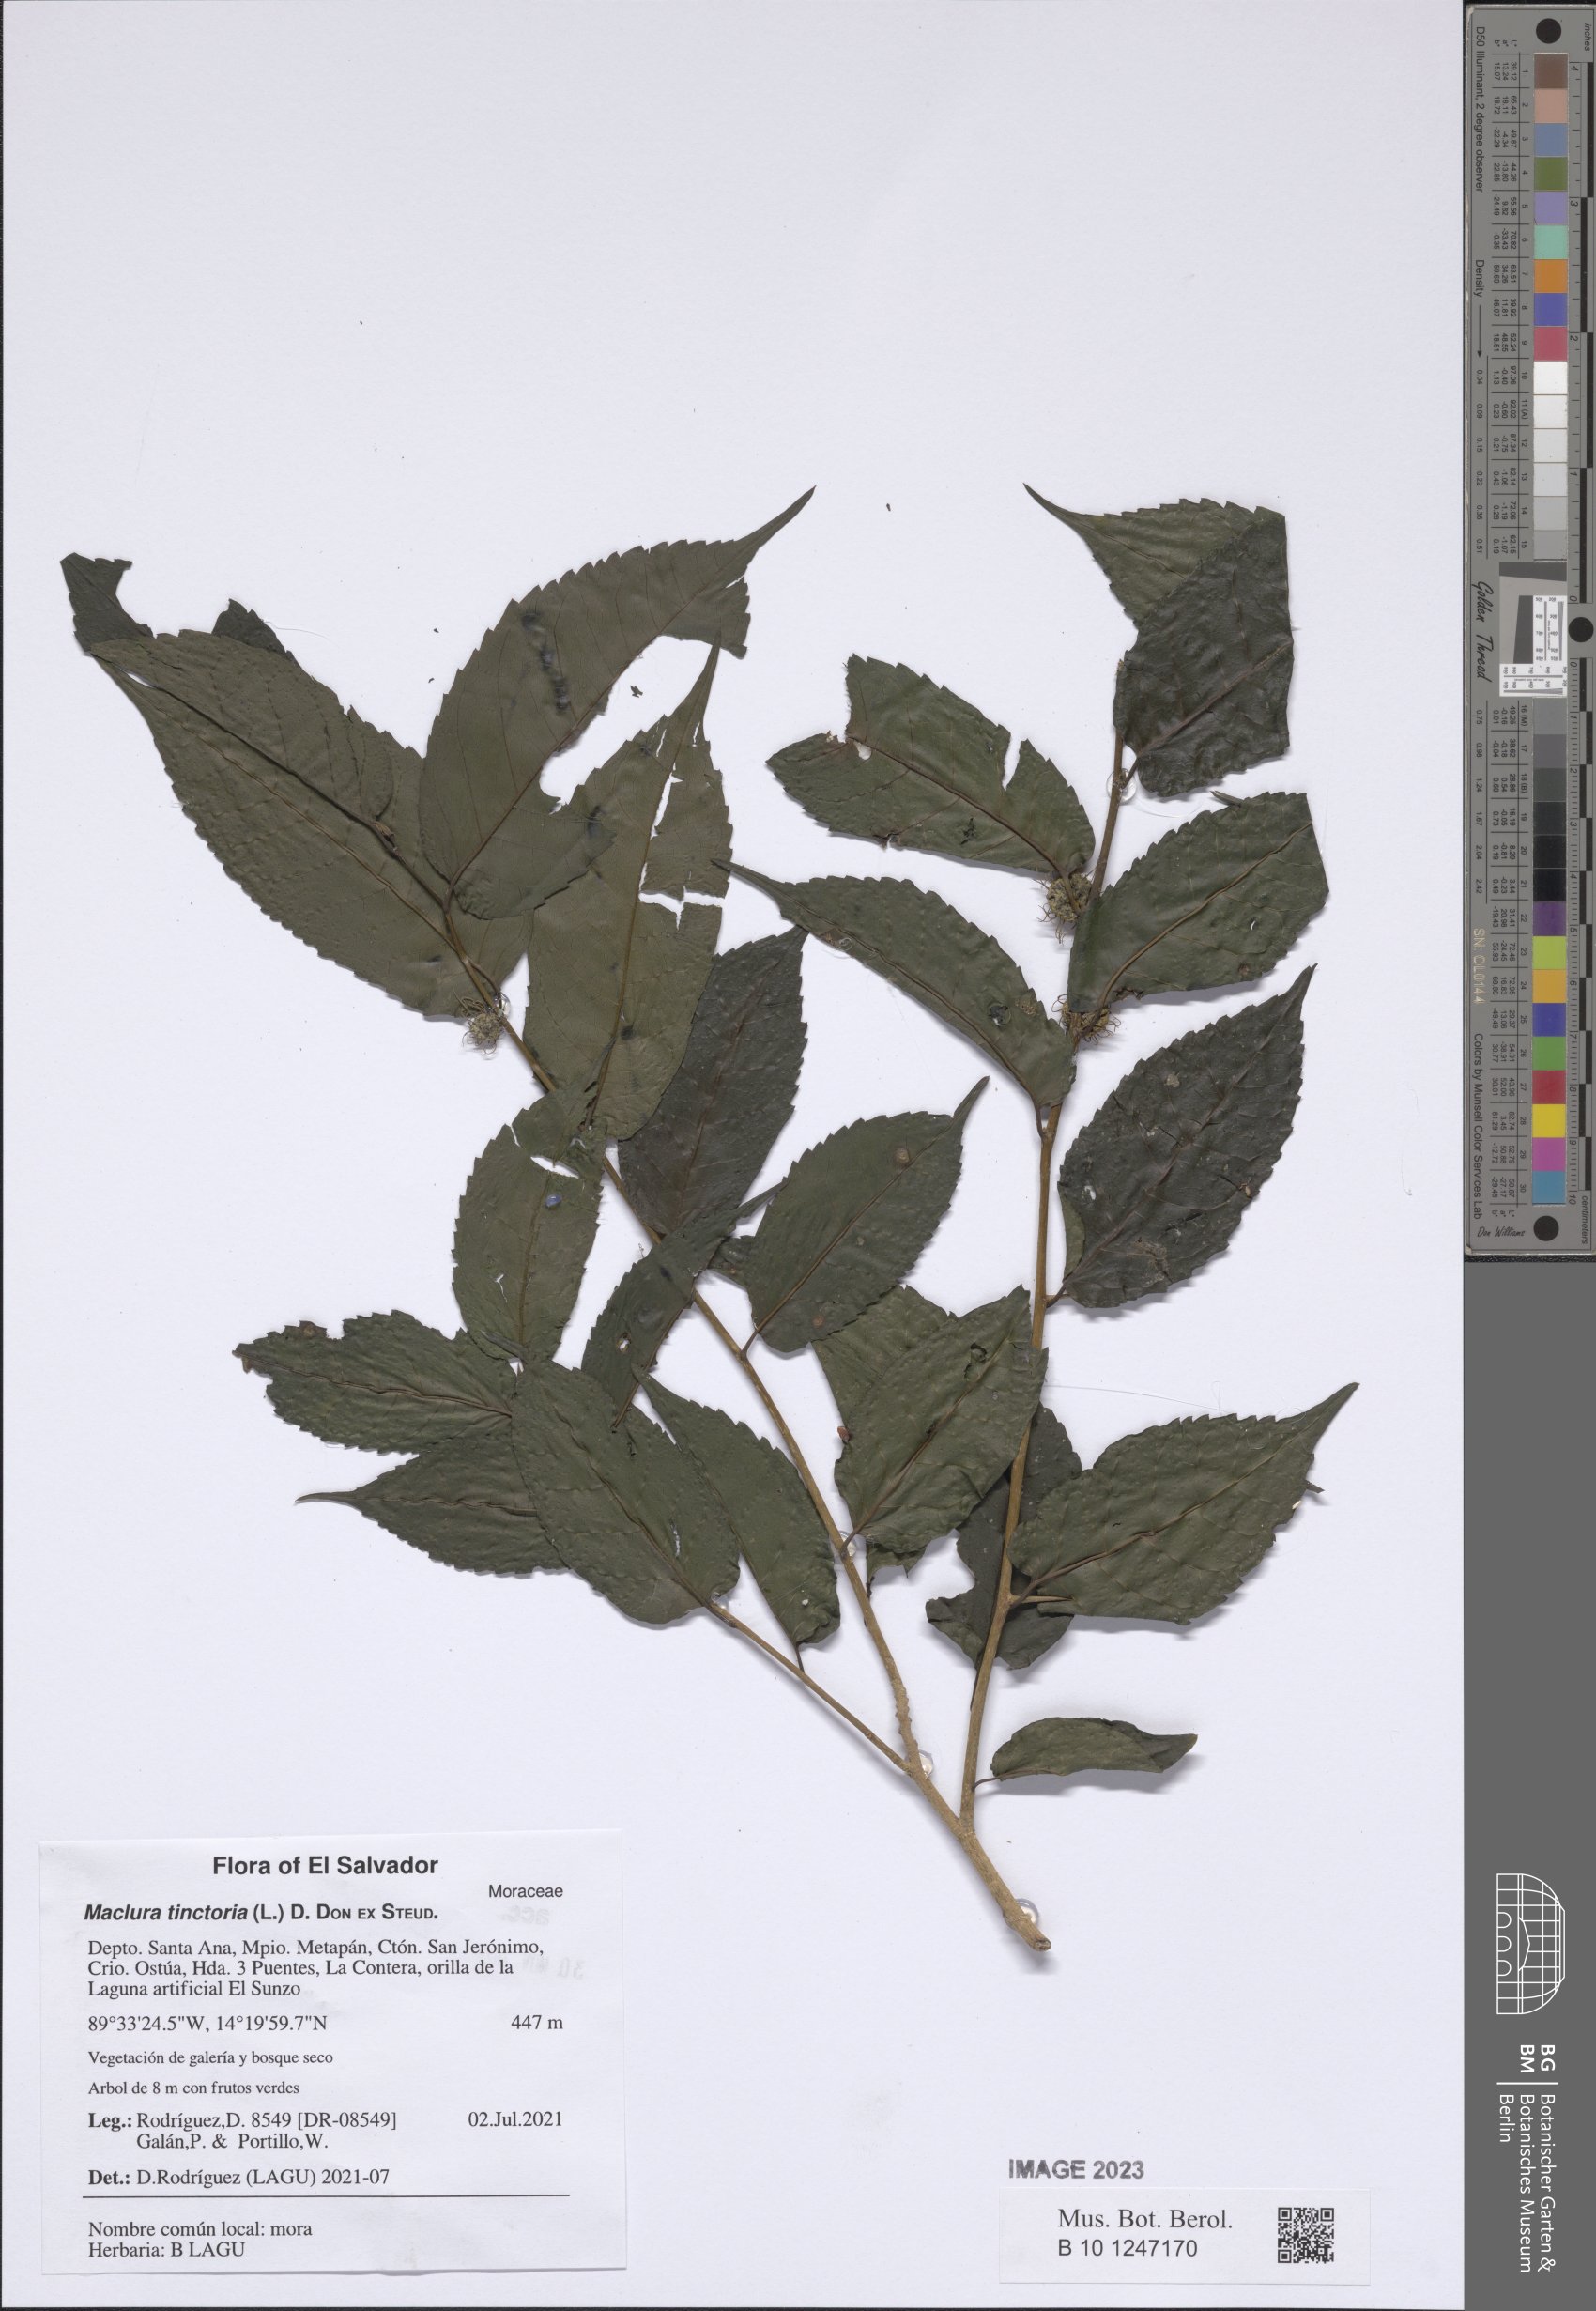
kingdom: Plantae
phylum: Tracheophyta
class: Magnoliopsida
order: Rosales
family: Moraceae
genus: Maclura
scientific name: Maclura tinctoria
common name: Old fustic
